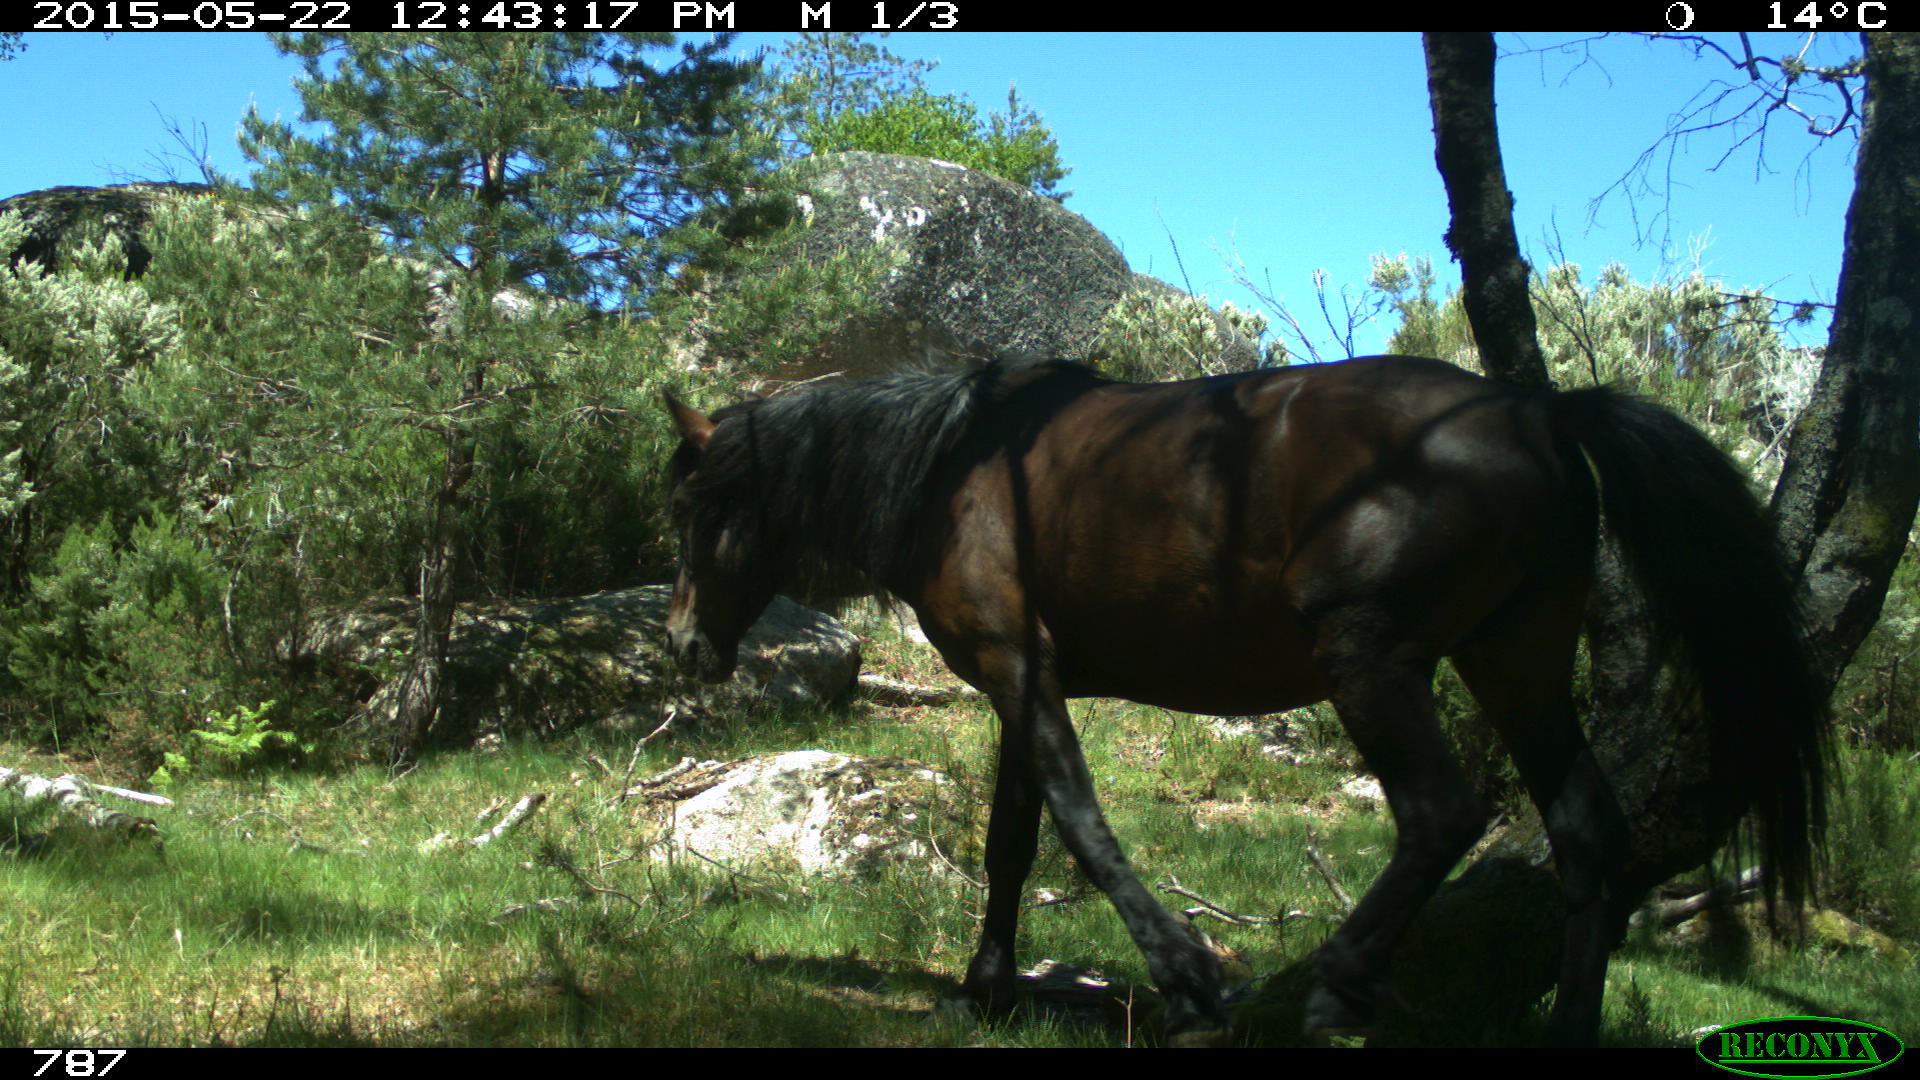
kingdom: Animalia
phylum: Chordata
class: Mammalia
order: Perissodactyla
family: Equidae
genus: Equus
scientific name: Equus caballus
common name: Horse
